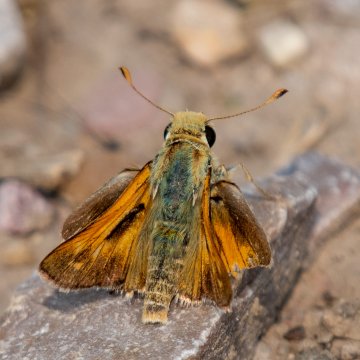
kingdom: Animalia
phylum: Arthropoda
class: Insecta
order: Lepidoptera
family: Hesperiidae
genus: Ochlodes
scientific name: Ochlodes sylvanoides
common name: Woodland Skipper
